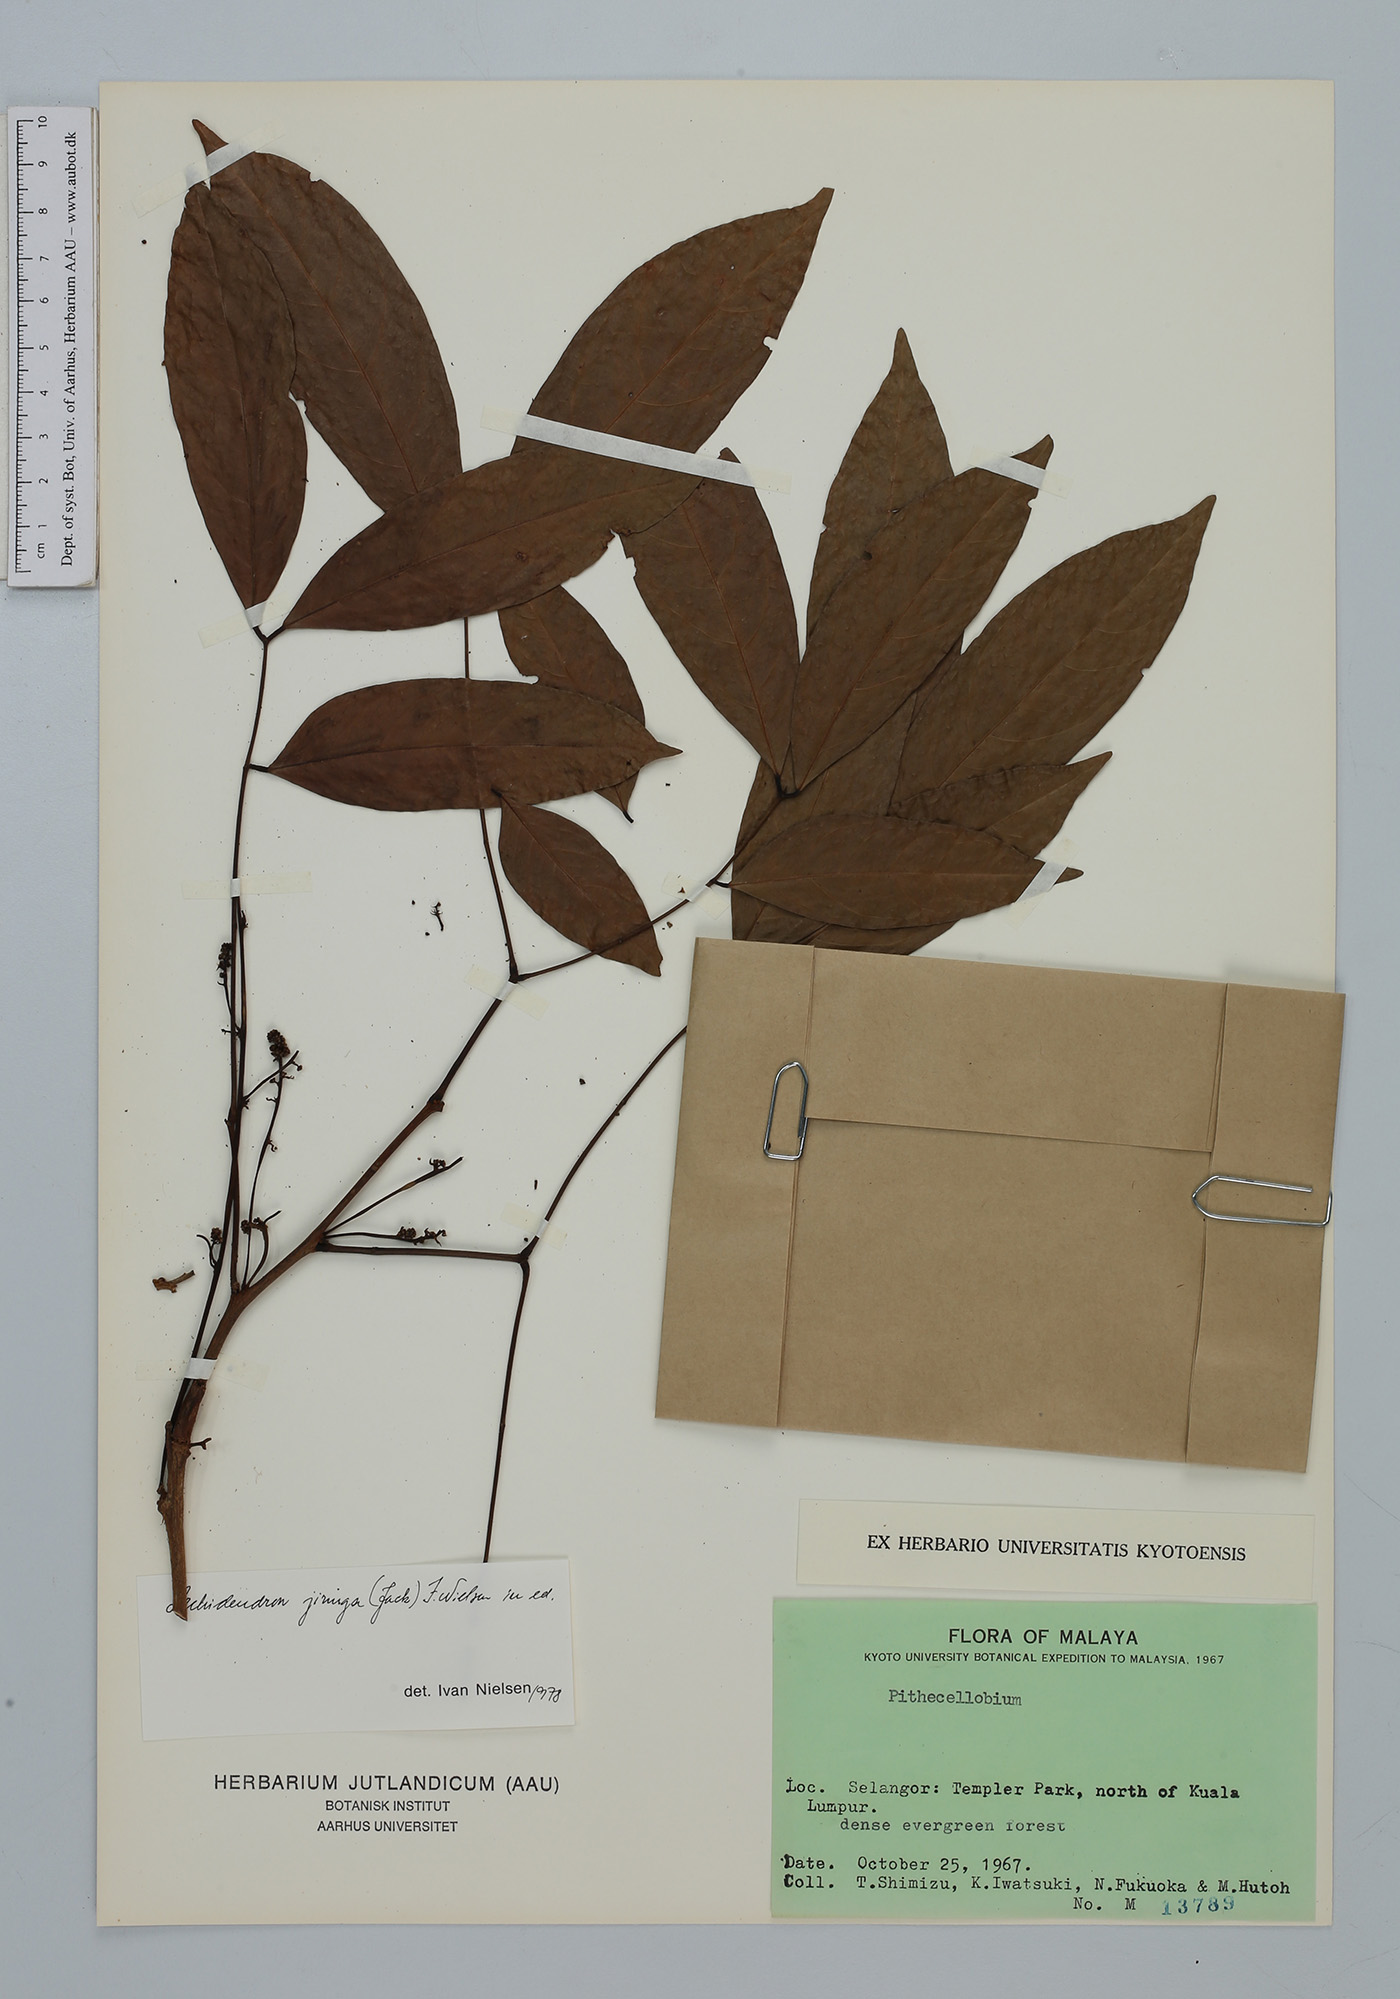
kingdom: Plantae
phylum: Tracheophyta
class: Magnoliopsida
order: Fabales
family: Fabaceae
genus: Archidendron
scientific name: Archidendron jiringa
